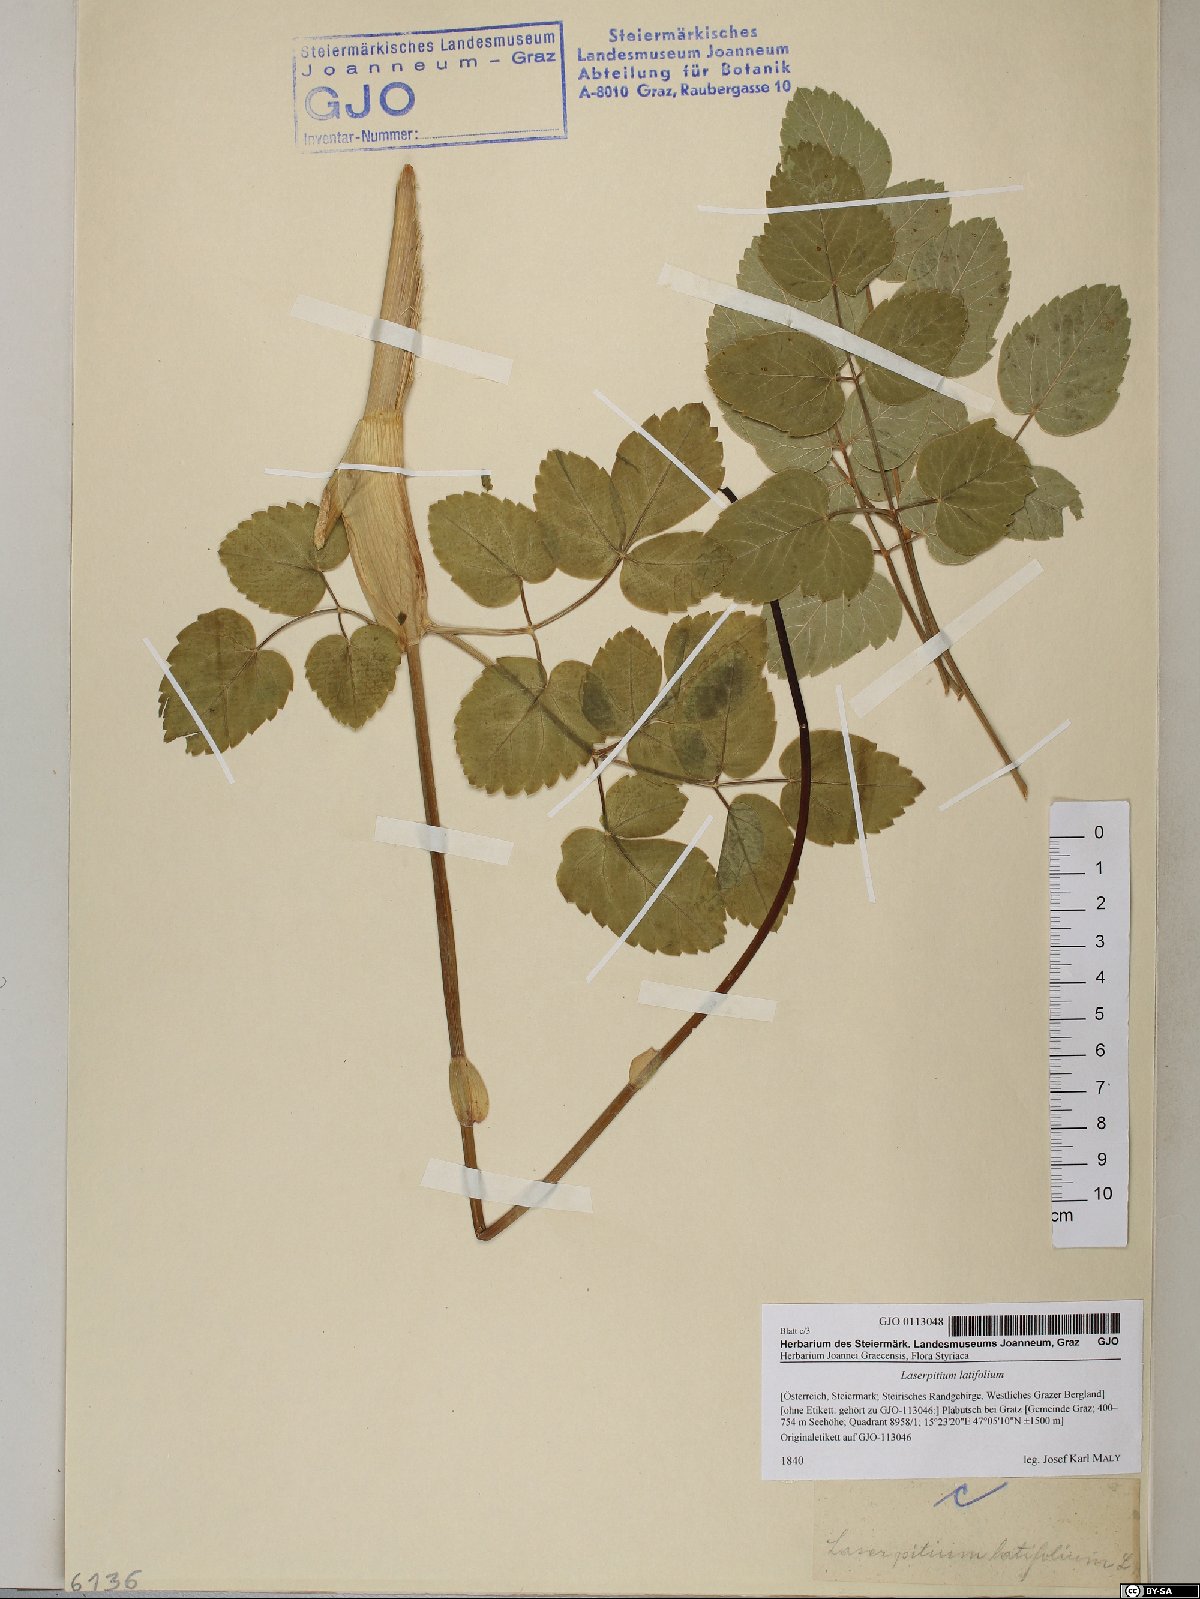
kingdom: Plantae
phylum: Tracheophyta
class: Magnoliopsida
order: Apiales
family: Apiaceae
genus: Laserpitium
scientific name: Laserpitium latifolium
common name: Broadleaf sermountain
